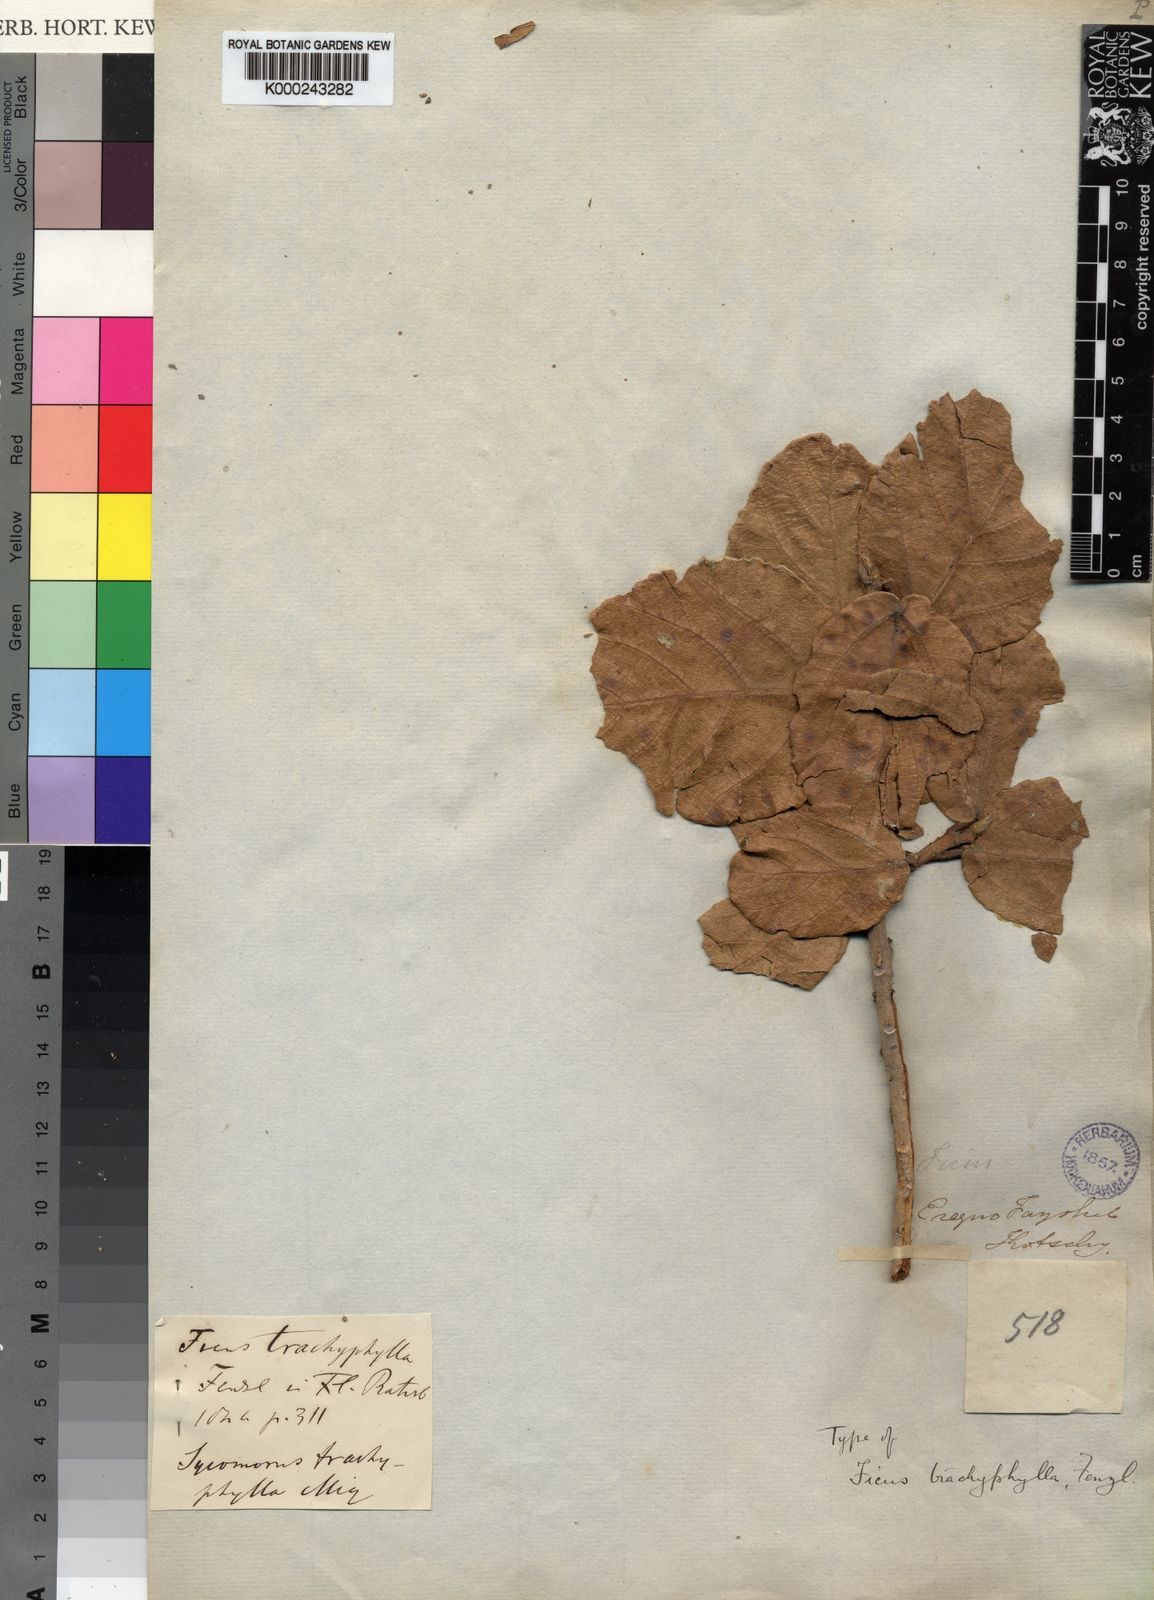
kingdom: Plantae
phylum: Tracheophyta
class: Magnoliopsida
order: Rosales
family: Moraceae
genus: Ficus
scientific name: Ficus sycomorus
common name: Sycomore
